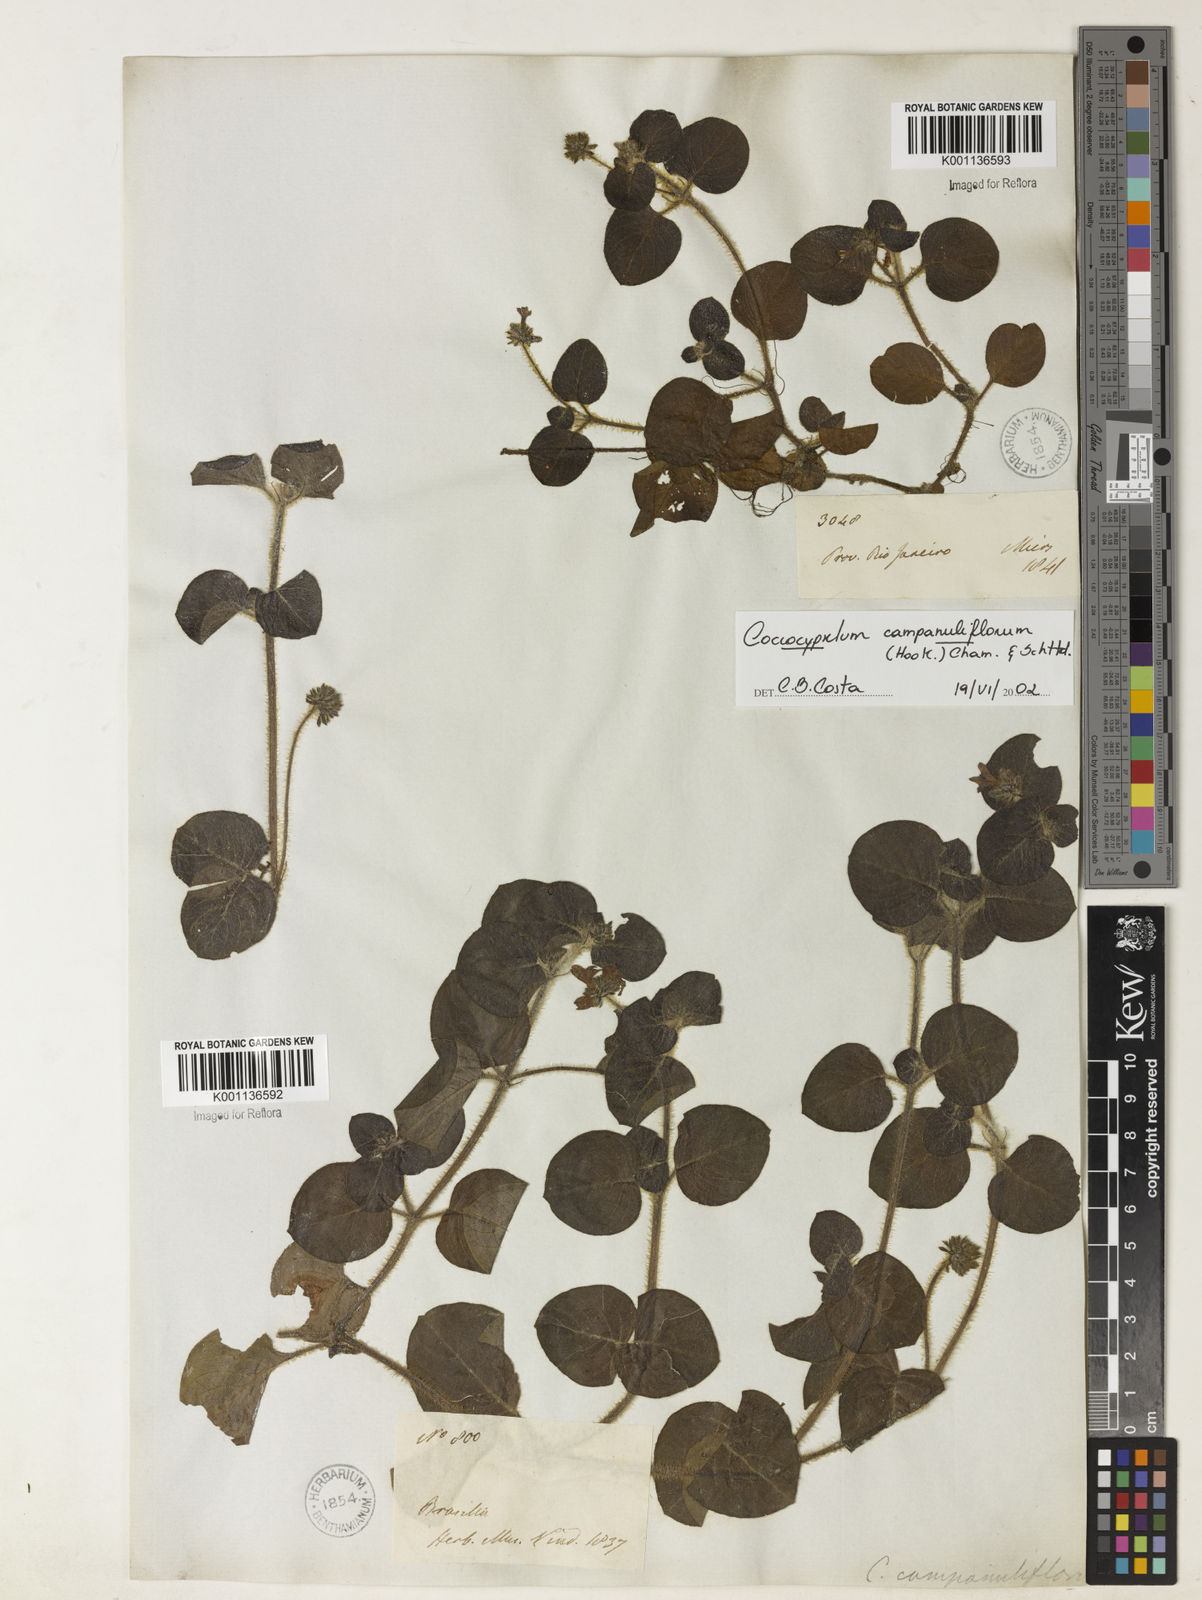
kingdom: Plantae
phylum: Tracheophyta
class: Magnoliopsida
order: Gentianales
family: Rubiaceae
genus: Coccocypselum
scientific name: Coccocypselum capitatum
